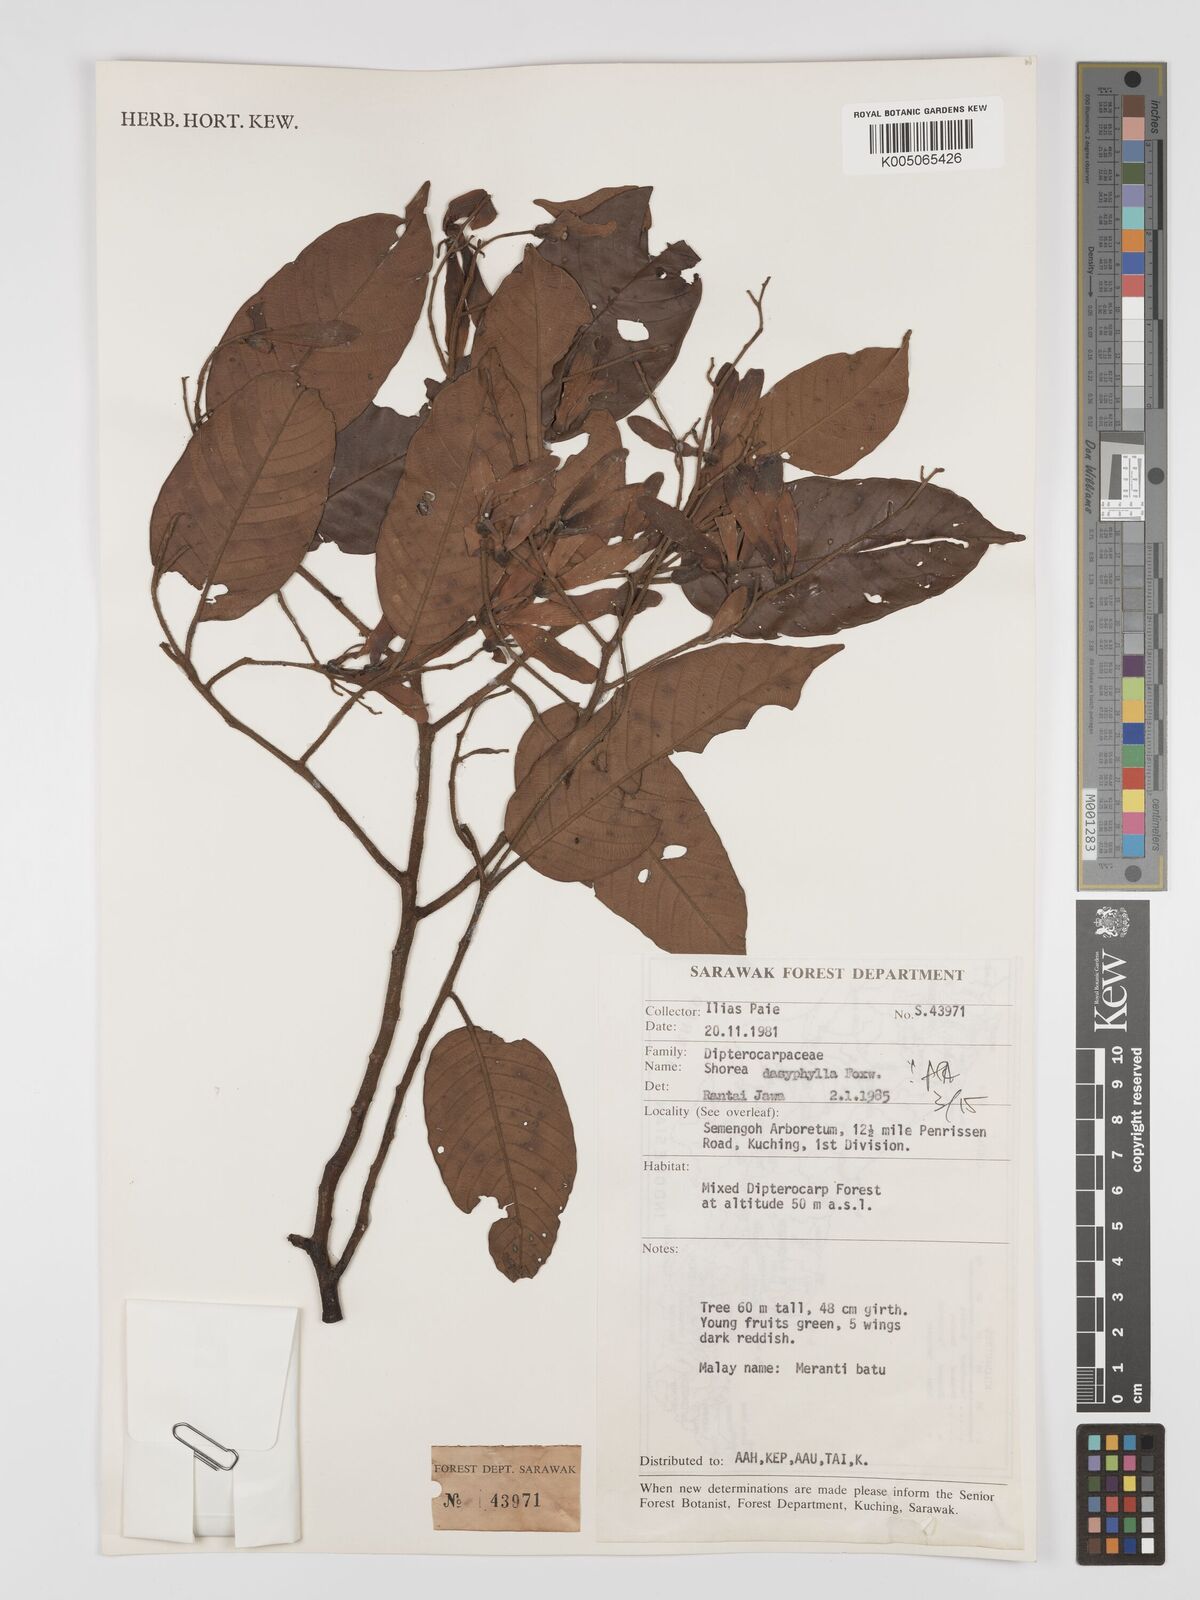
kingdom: Plantae
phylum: Tracheophyta
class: Magnoliopsida
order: Malvales
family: Dipterocarpaceae
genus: Shorea
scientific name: Shorea dasyphylla
